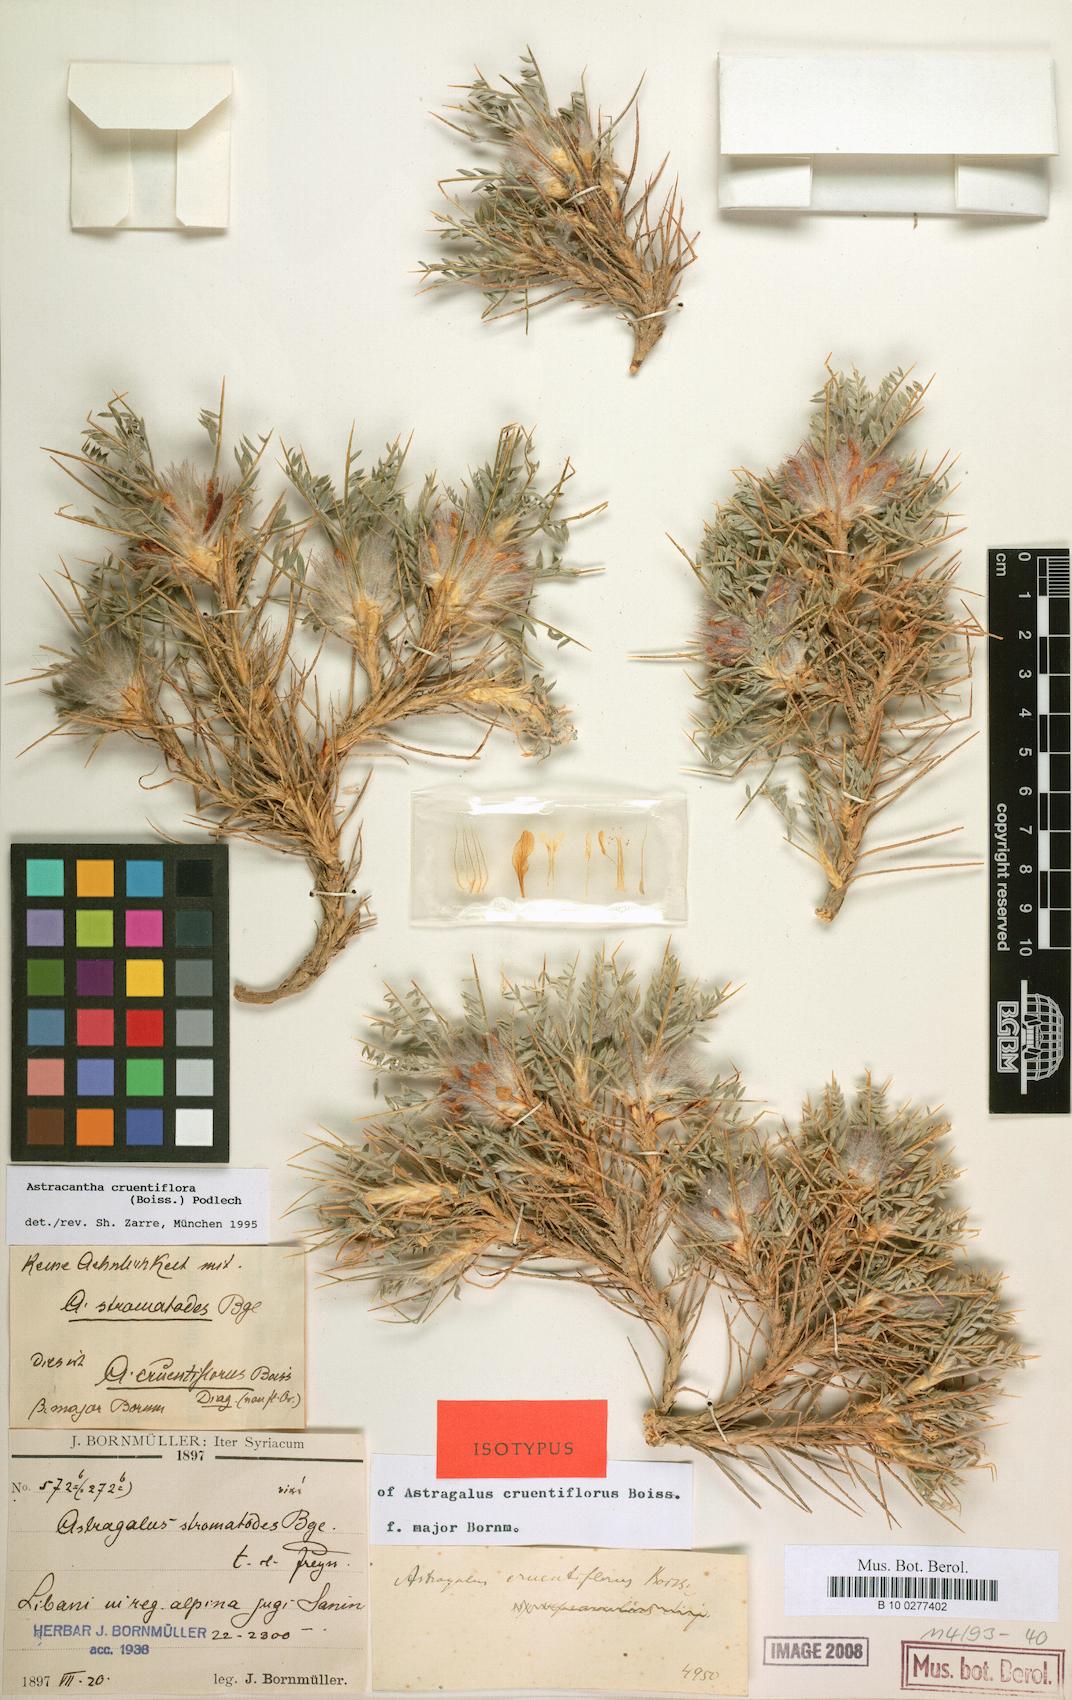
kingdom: Plantae
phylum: Tracheophyta
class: Magnoliopsida
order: Fabales
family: Fabaceae
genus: Astragalus
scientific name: Astragalus cruentiflorus
